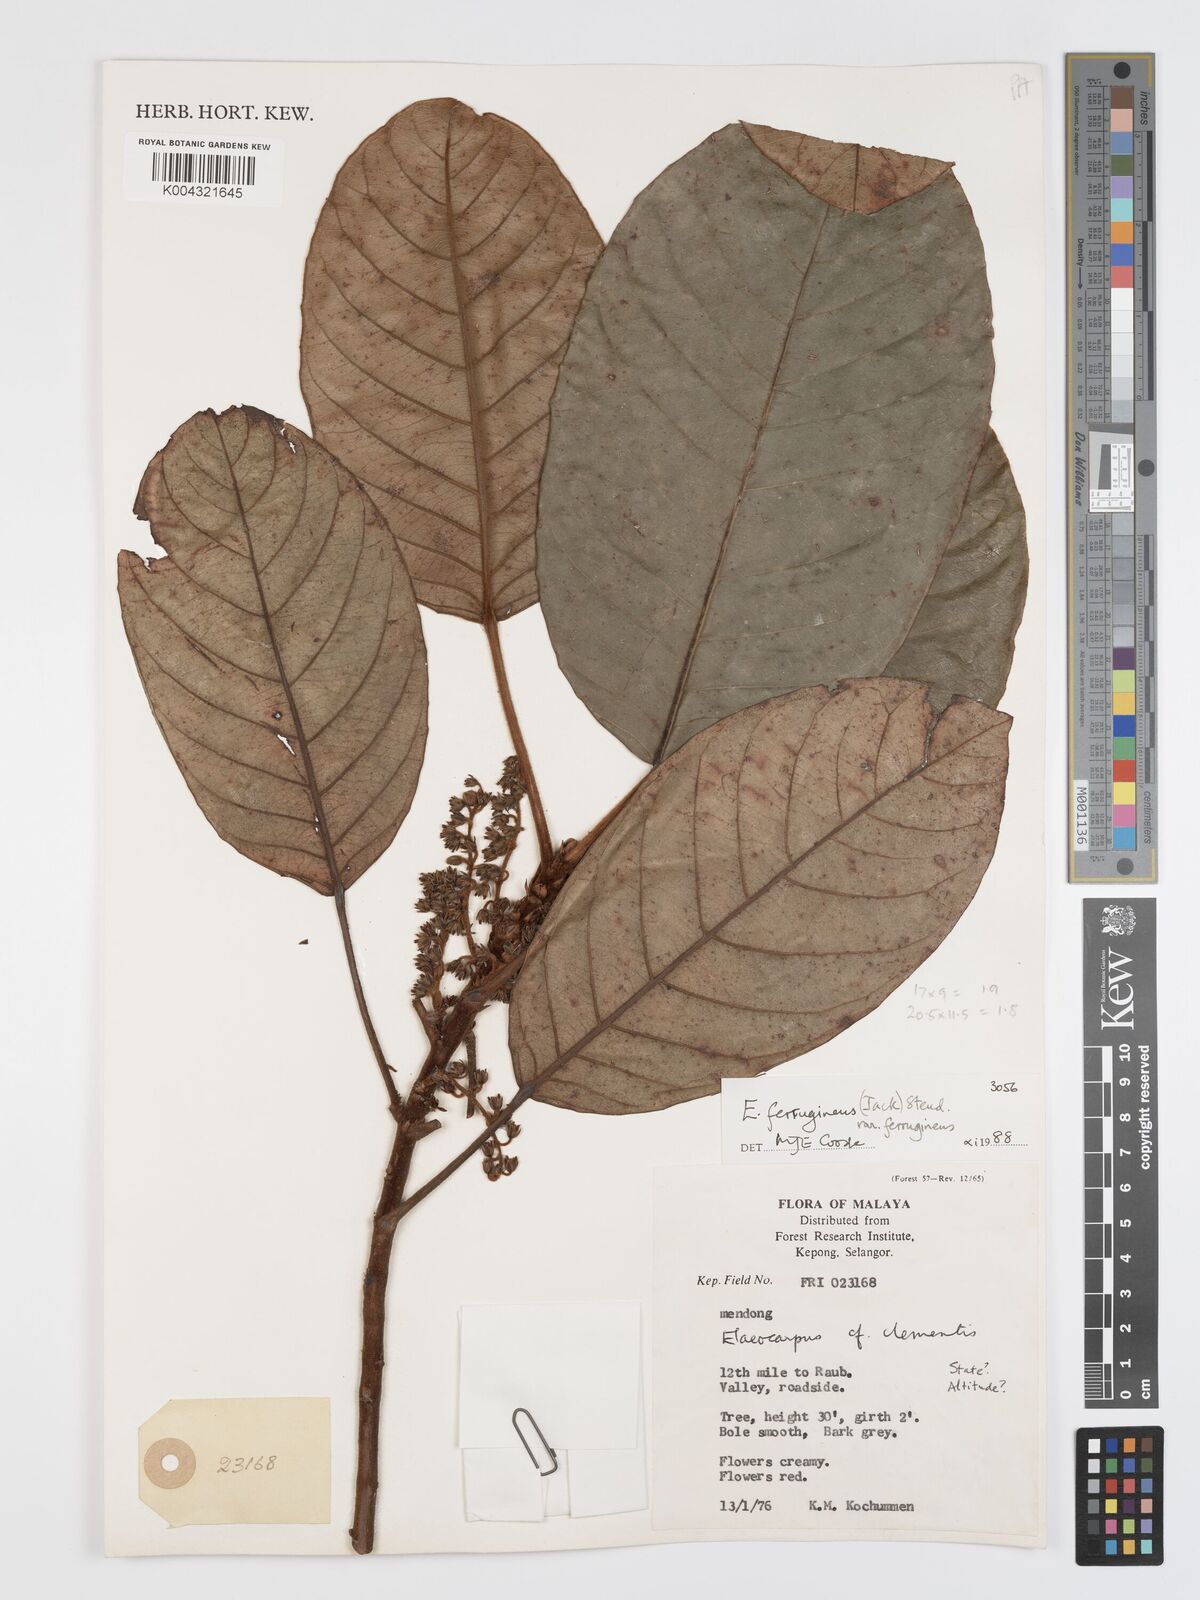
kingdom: Plantae
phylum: Tracheophyta
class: Magnoliopsida
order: Oxalidales
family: Elaeocarpaceae
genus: Elaeocarpus
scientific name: Elaeocarpus ferrugineus
